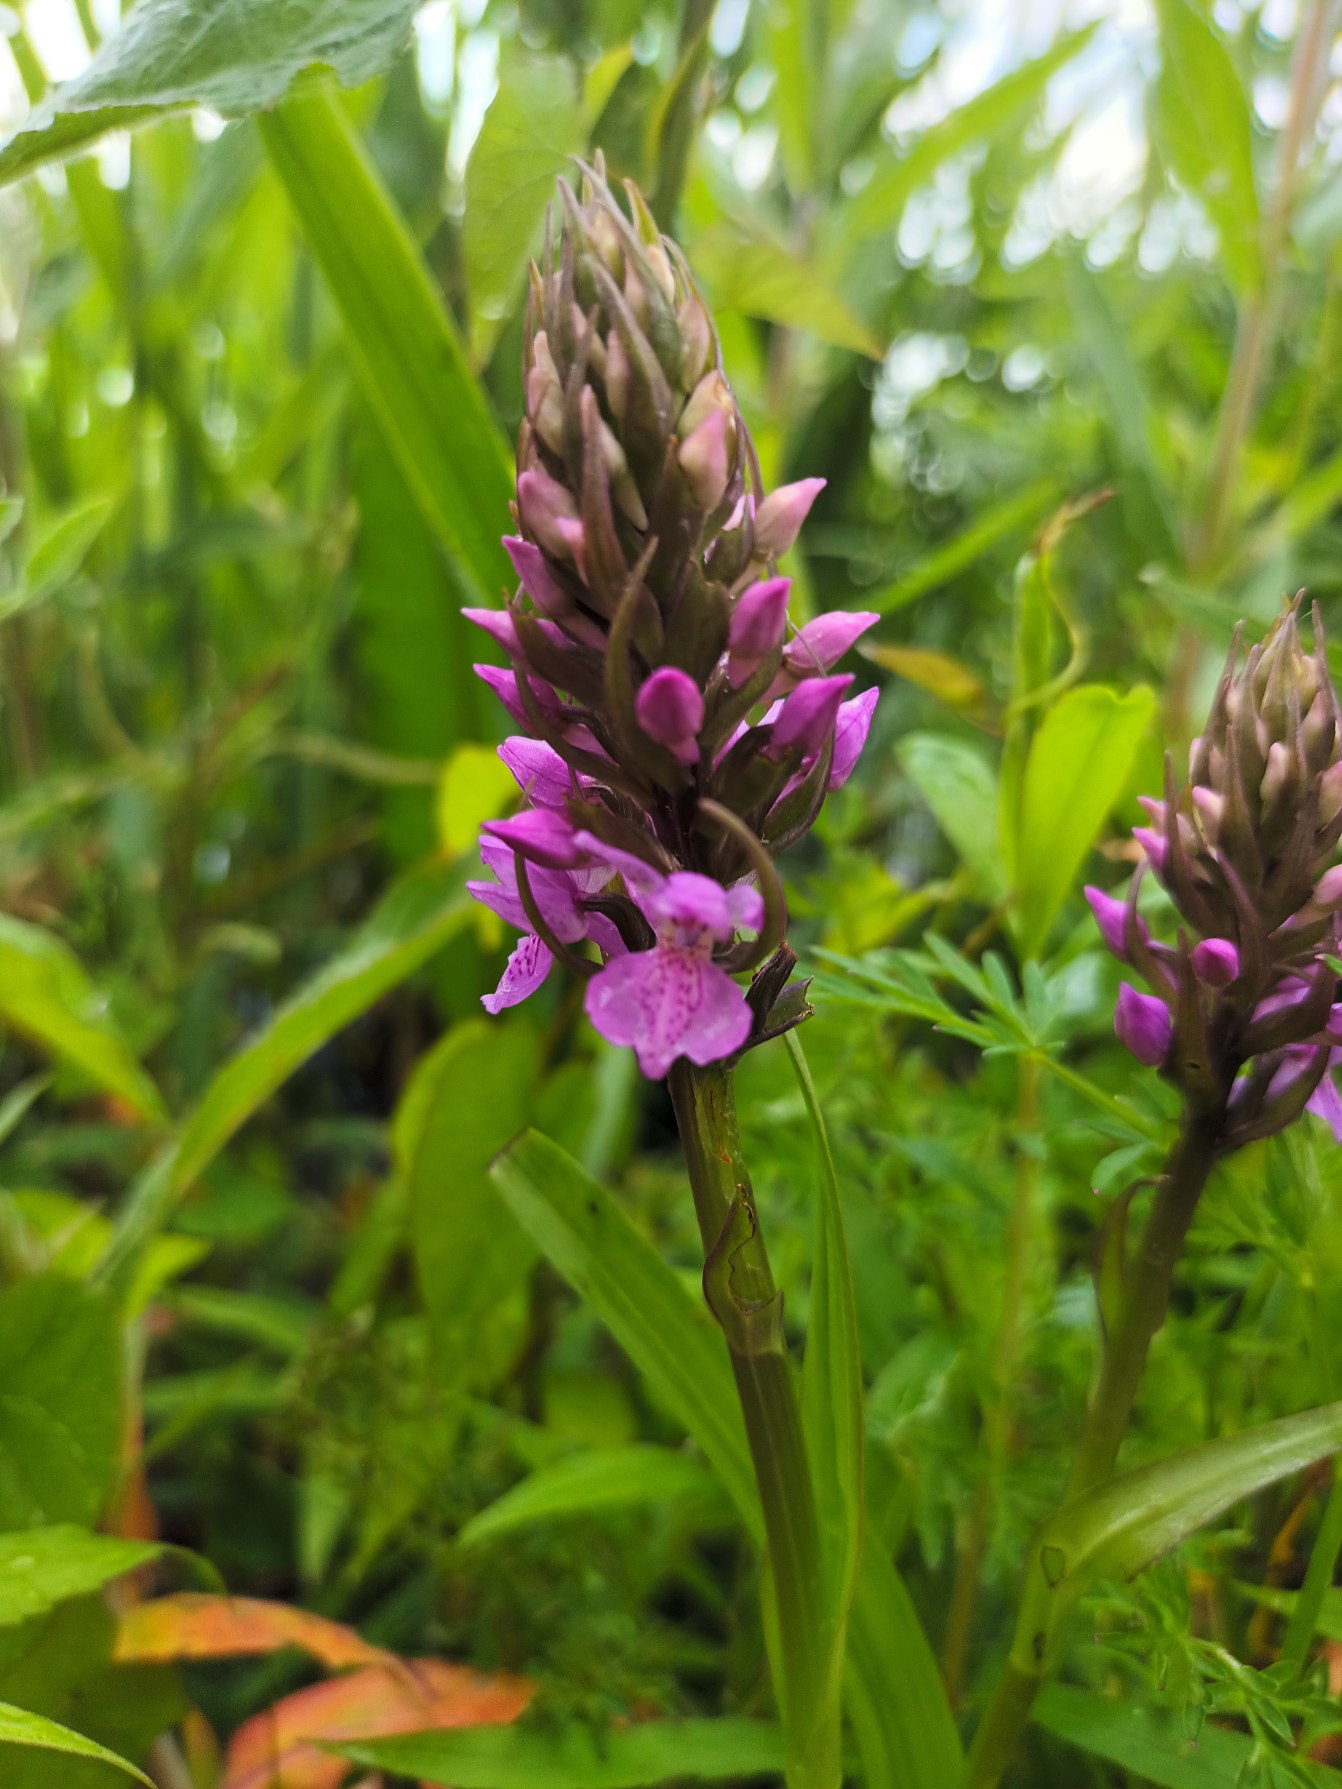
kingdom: Plantae
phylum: Tracheophyta
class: Liliopsida
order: Asparagales
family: Orchidaceae
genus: Dactylorhiza
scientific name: Dactylorhiza majalis
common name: Priklæbet gøgeurt
